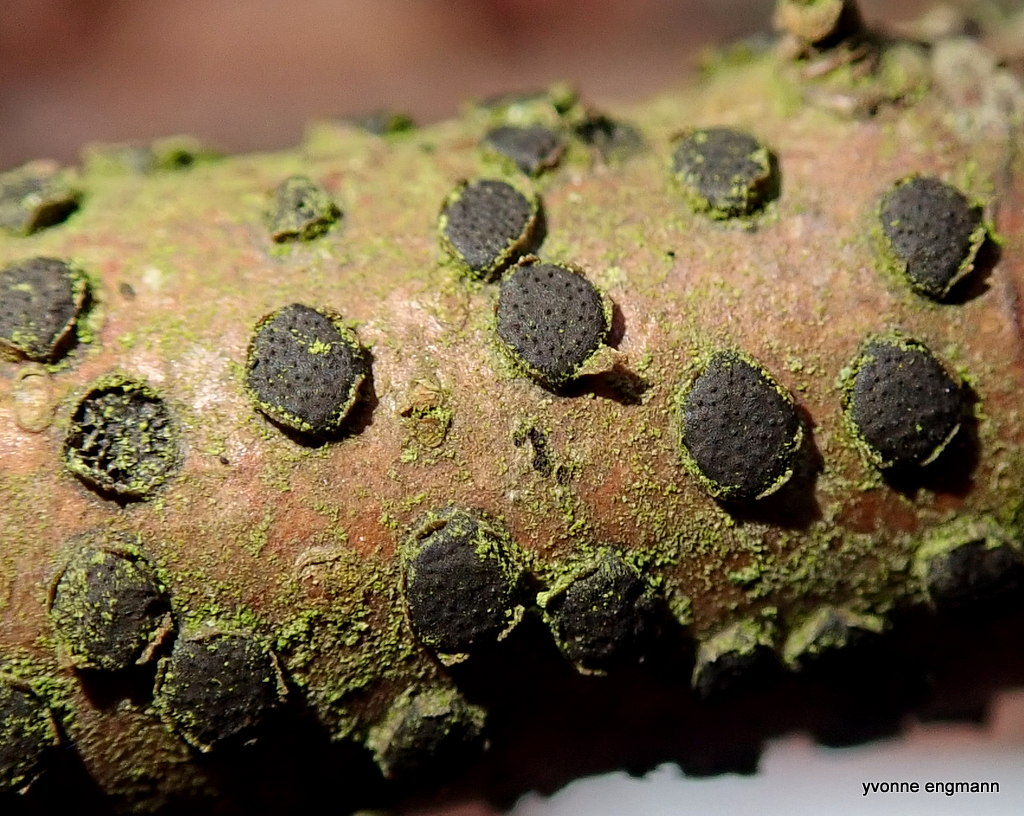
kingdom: Fungi
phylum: Ascomycota
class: Sordariomycetes
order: Xylariales
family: Diatrypaceae
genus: Diatrype
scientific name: Diatrype disciformis
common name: kant-kulskorpe
